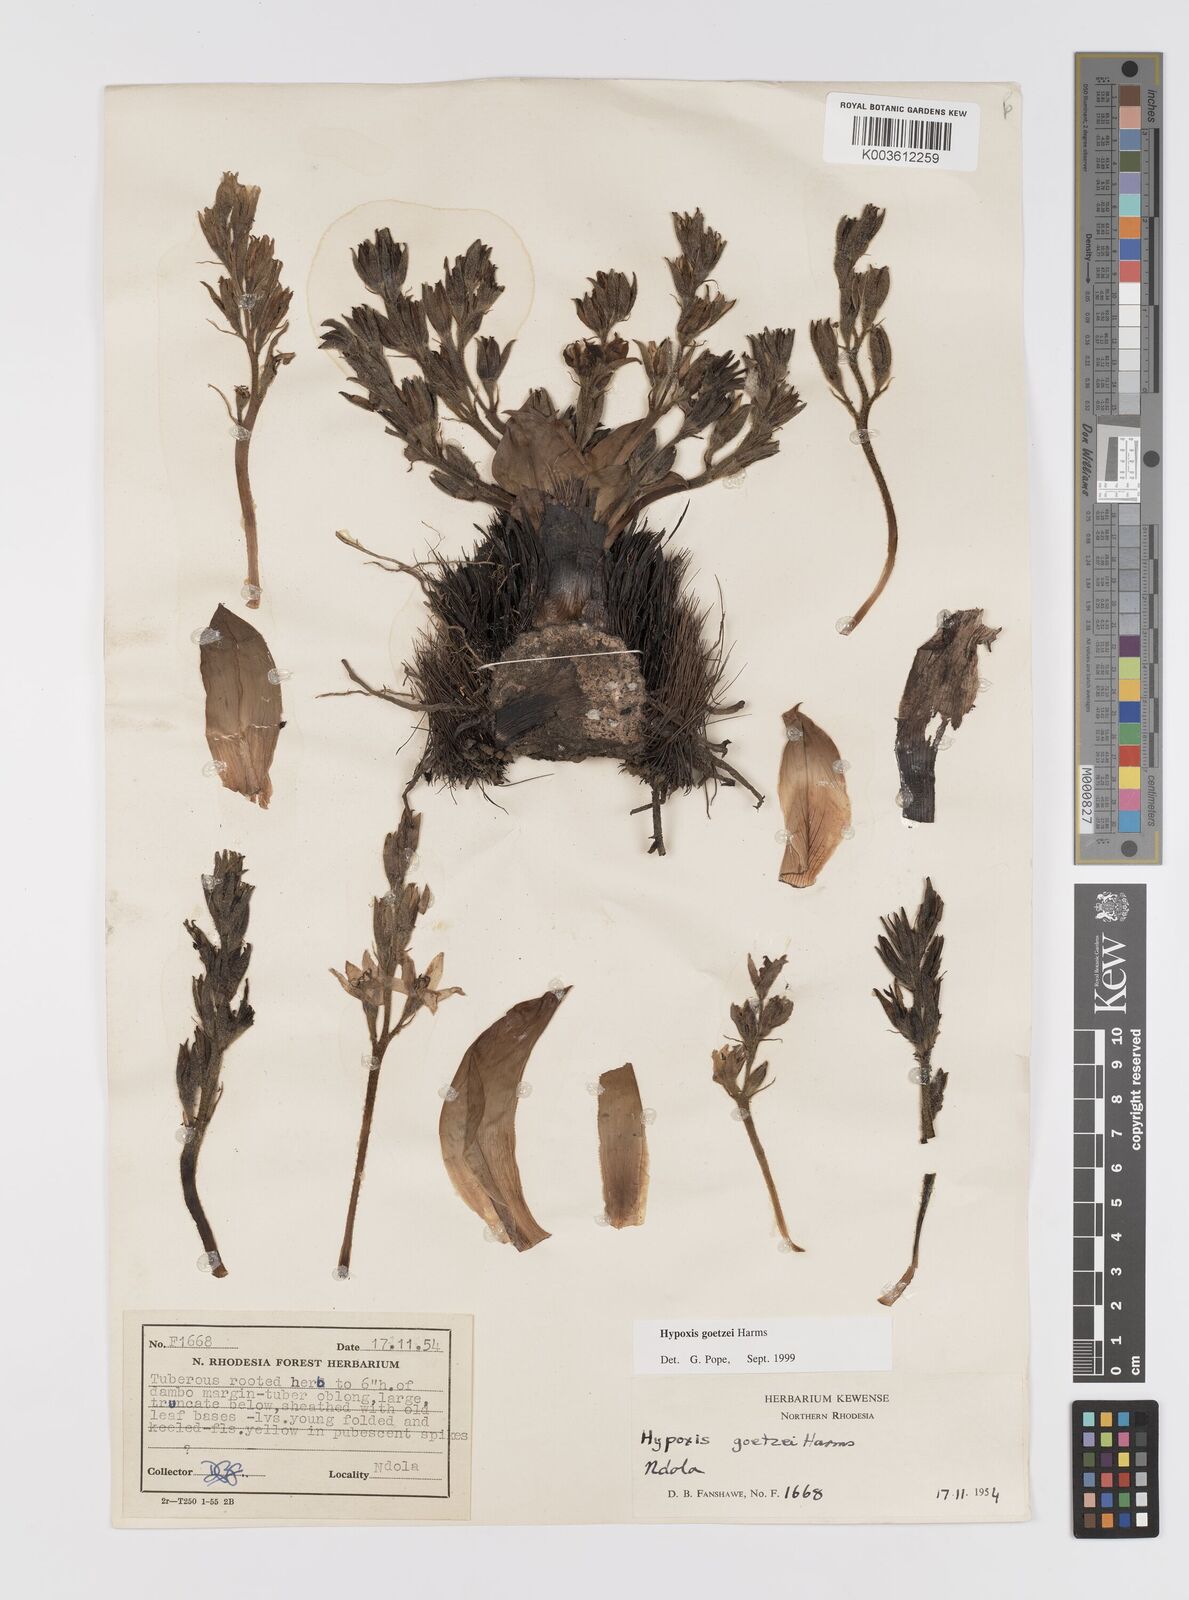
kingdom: Plantae
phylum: Tracheophyta
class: Liliopsida
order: Asparagales
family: Hypoxidaceae
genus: Hypoxis
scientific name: Hypoxis goetzei
